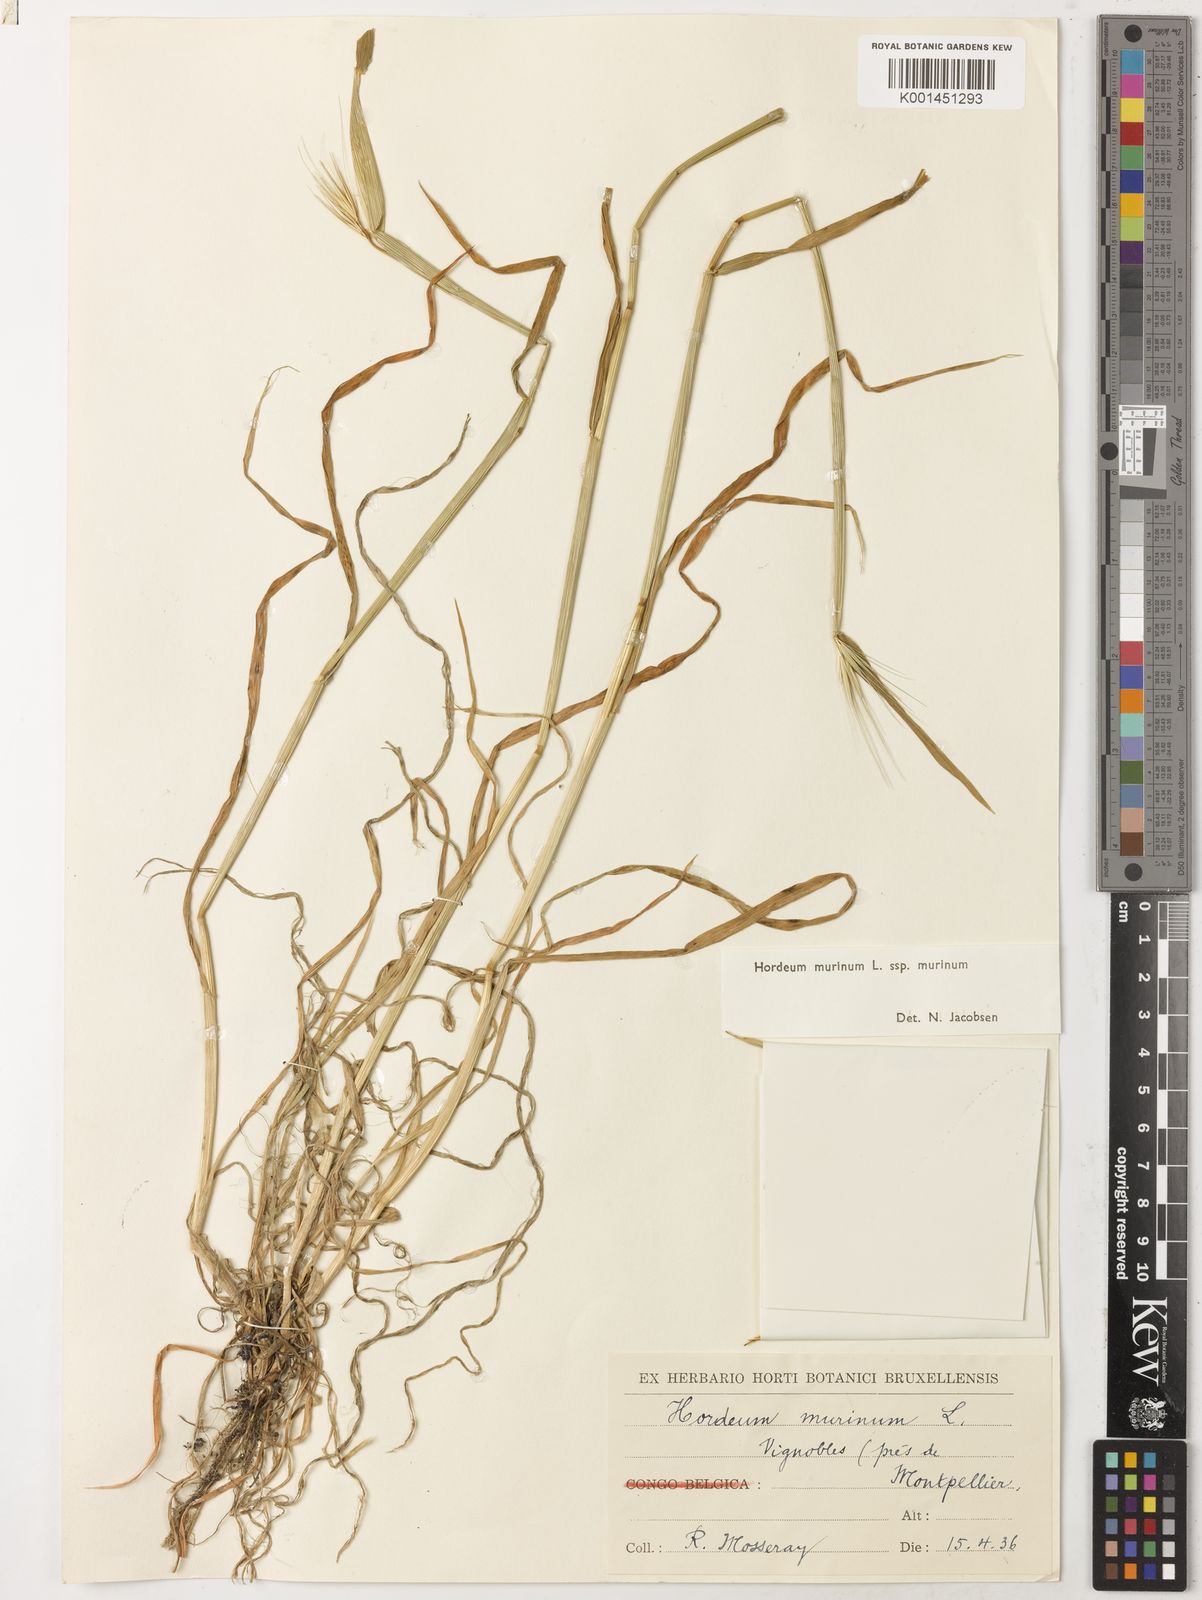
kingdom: Plantae
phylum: Tracheophyta
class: Liliopsida
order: Poales
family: Poaceae
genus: Hordeum
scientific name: Hordeum murinum
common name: Wall barley
